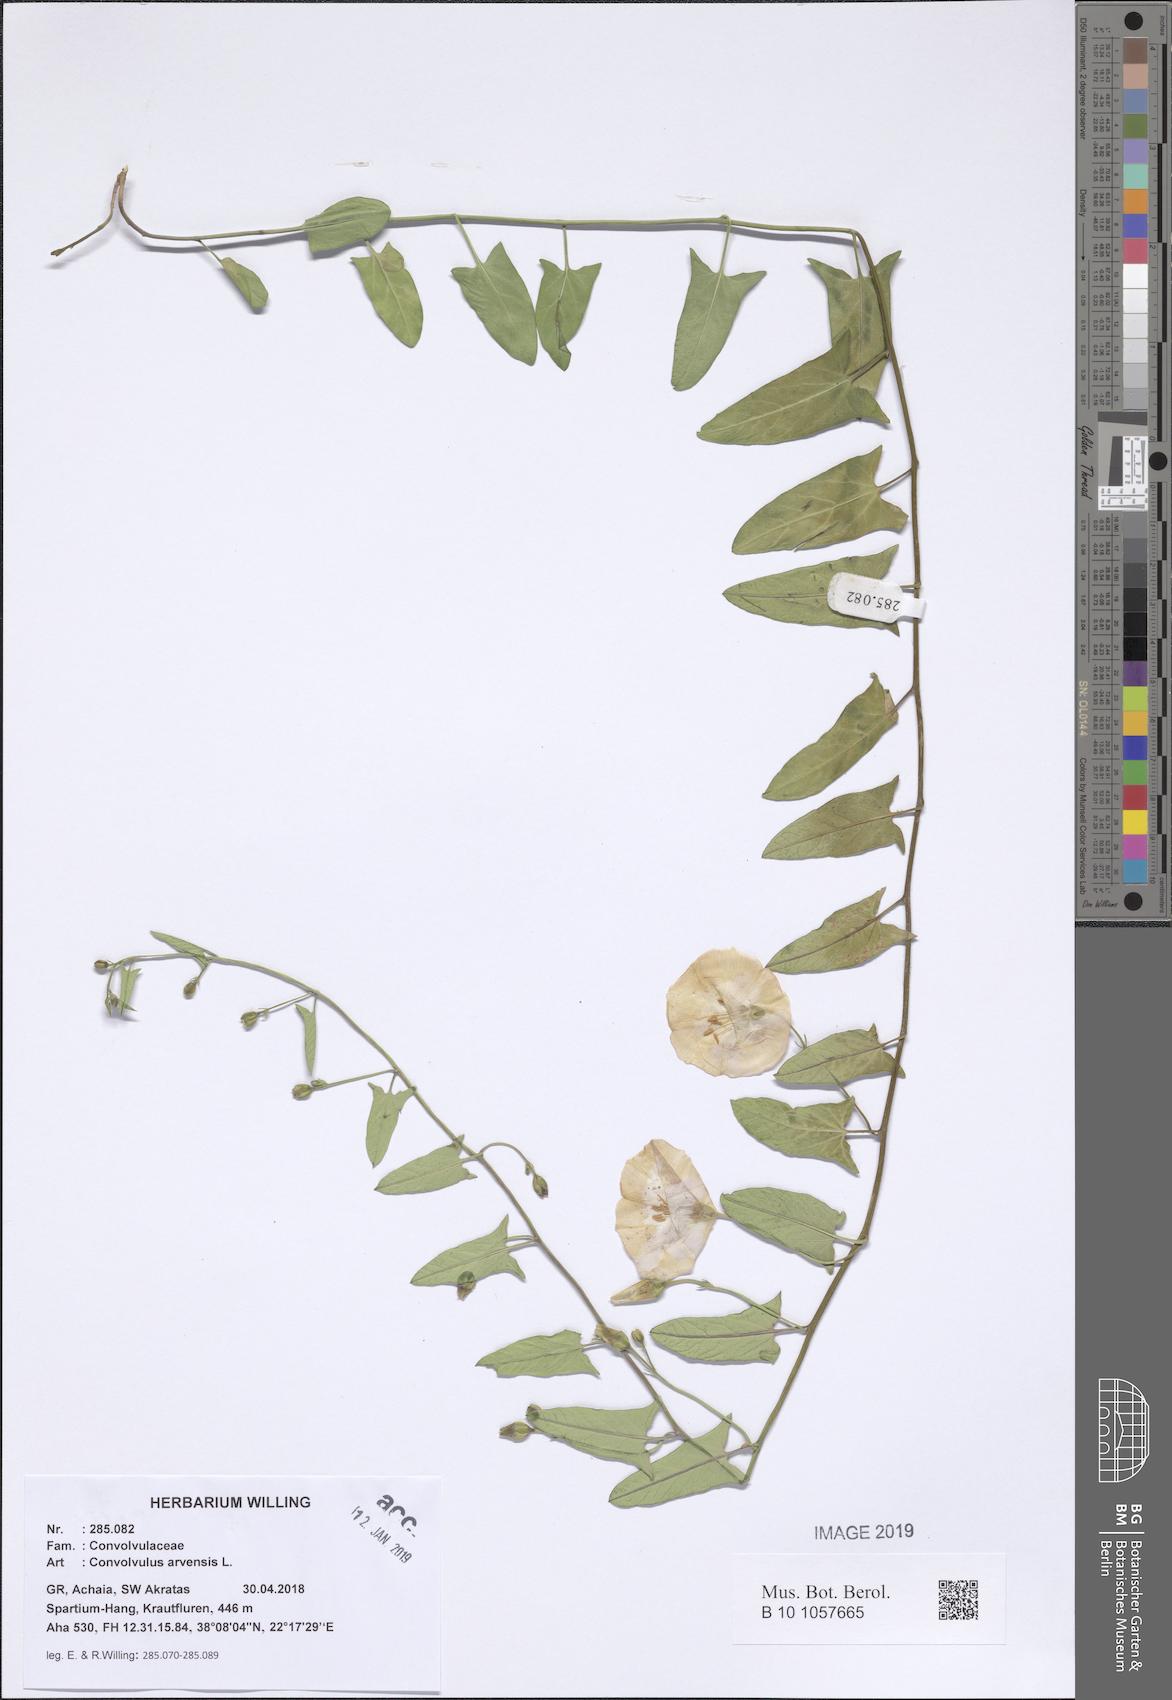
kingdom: Plantae
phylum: Tracheophyta
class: Magnoliopsida
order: Solanales
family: Convolvulaceae
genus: Convolvulus
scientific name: Convolvulus arvensis
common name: Field bindweed
